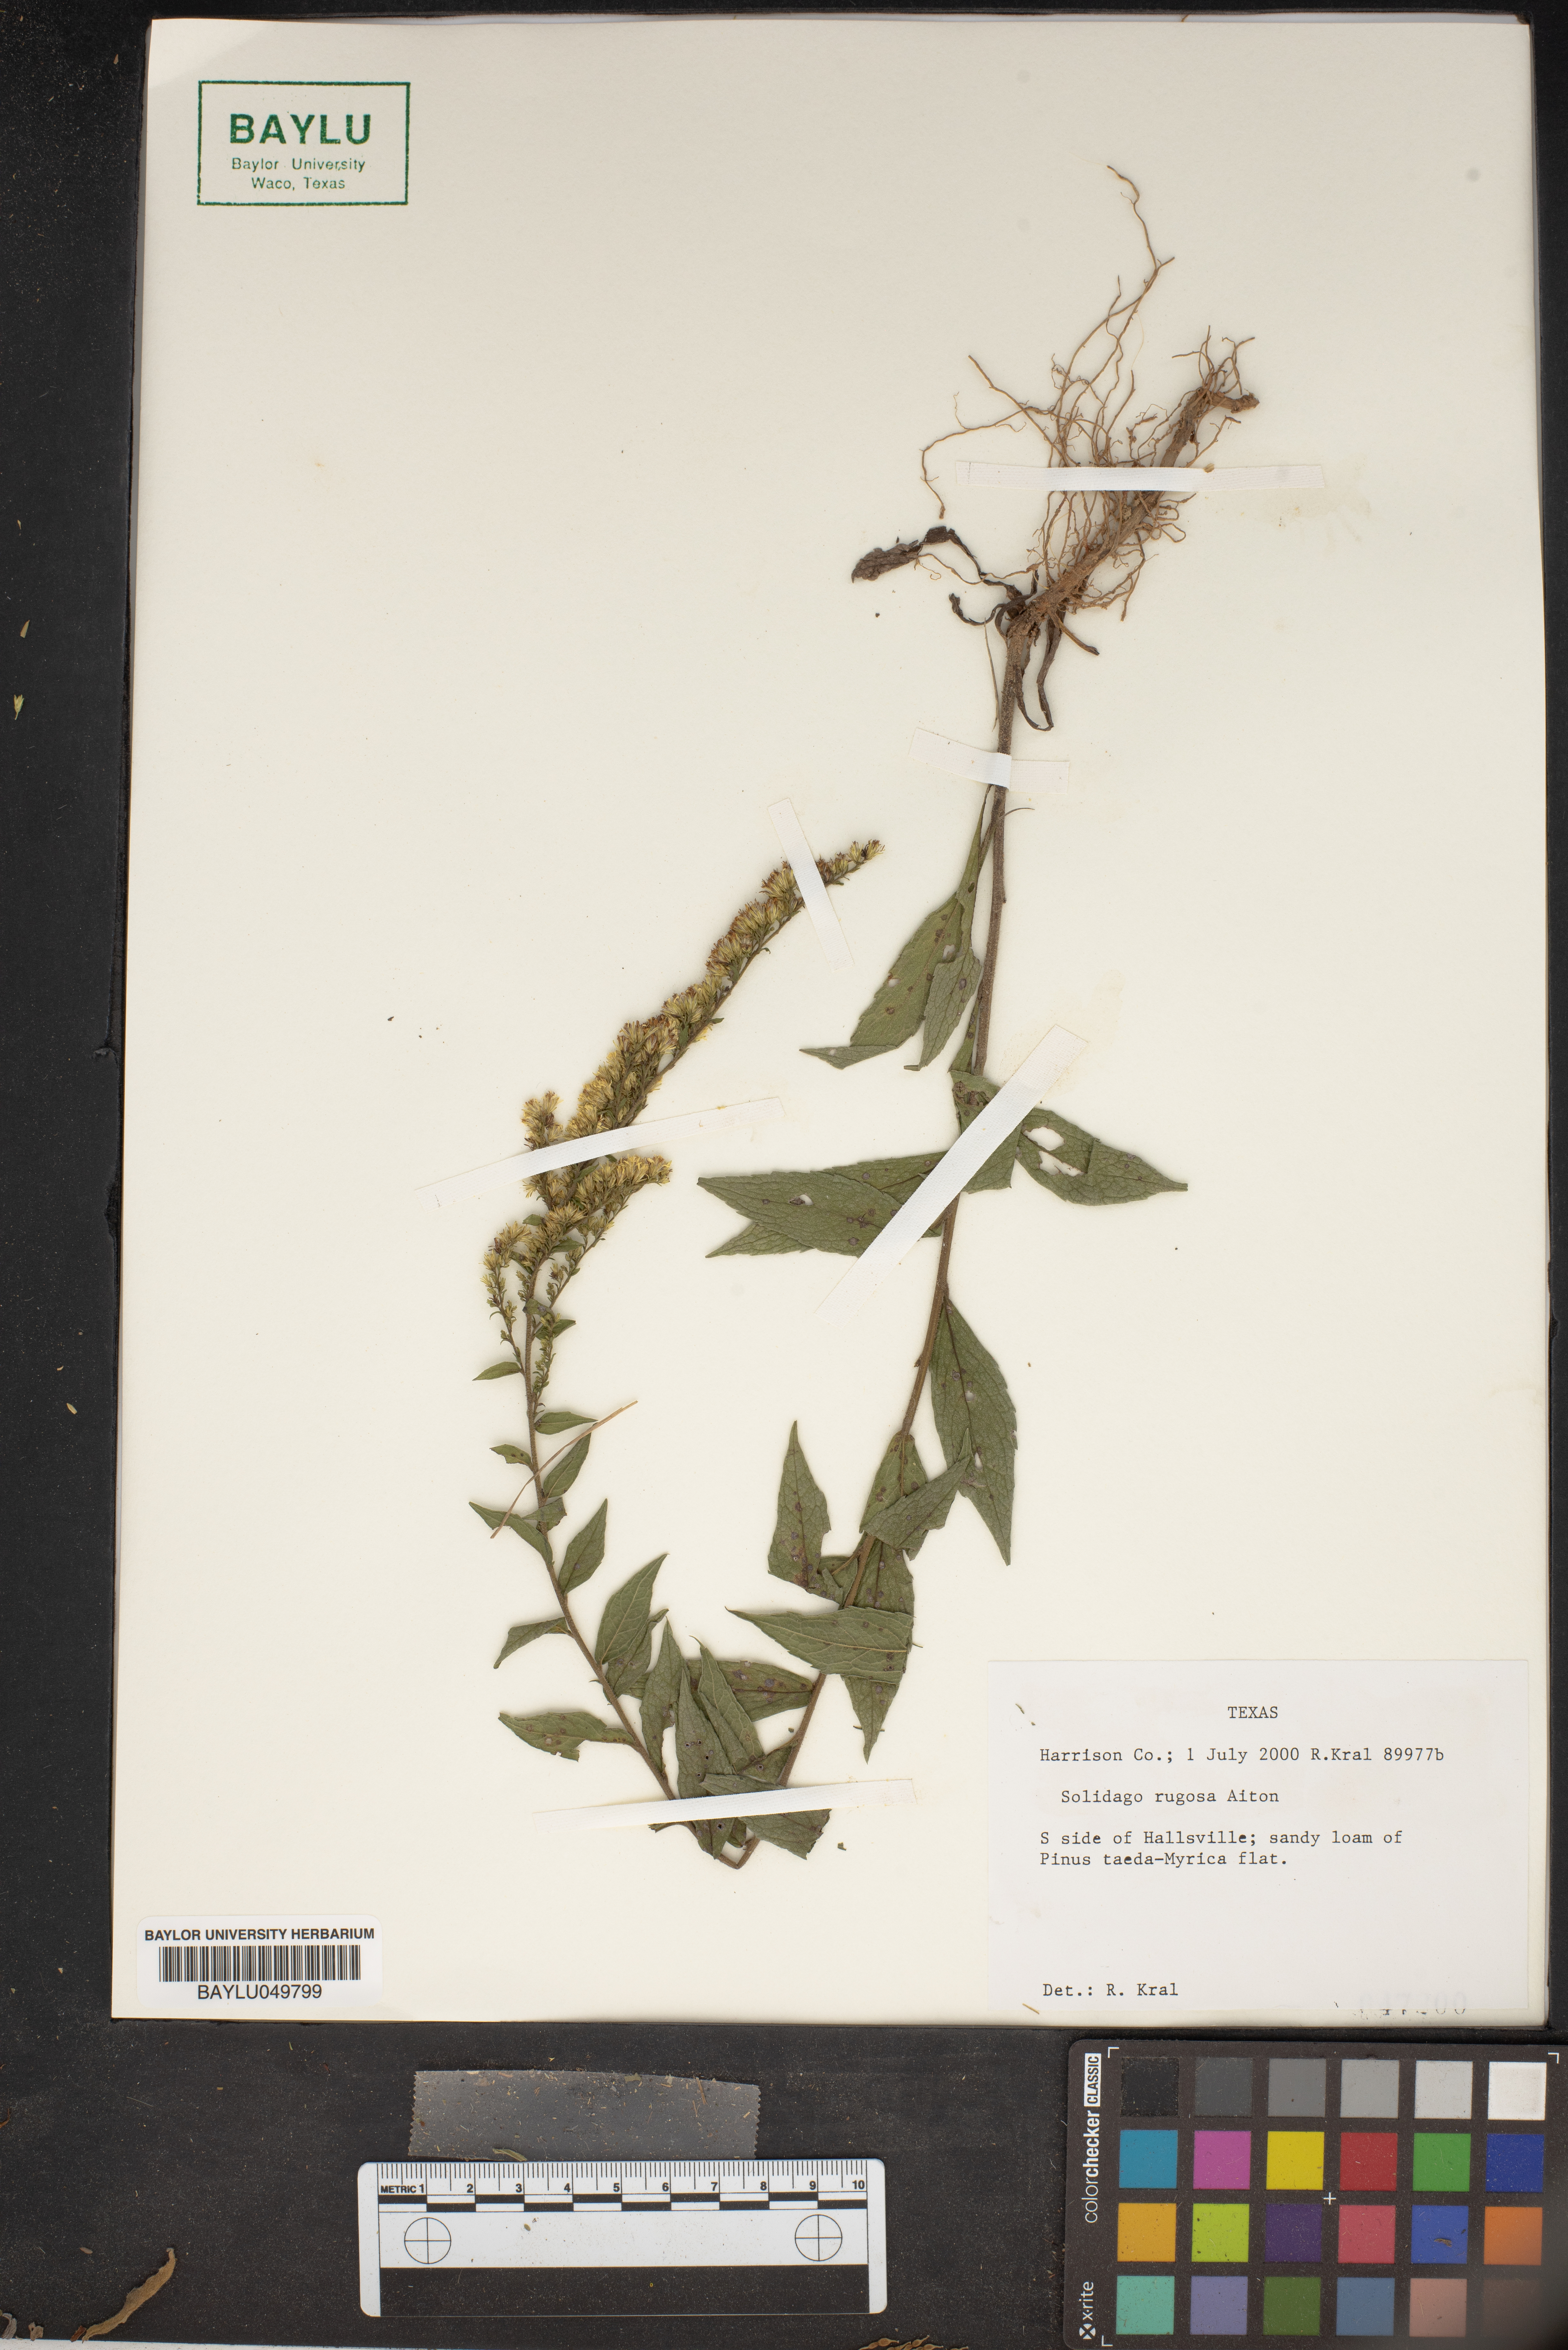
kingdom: Plantae
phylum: Tracheophyta
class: Magnoliopsida
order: Asterales
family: Asteraceae
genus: Solidago
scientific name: Solidago rugosa
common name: Rough-stemmed goldenrod
